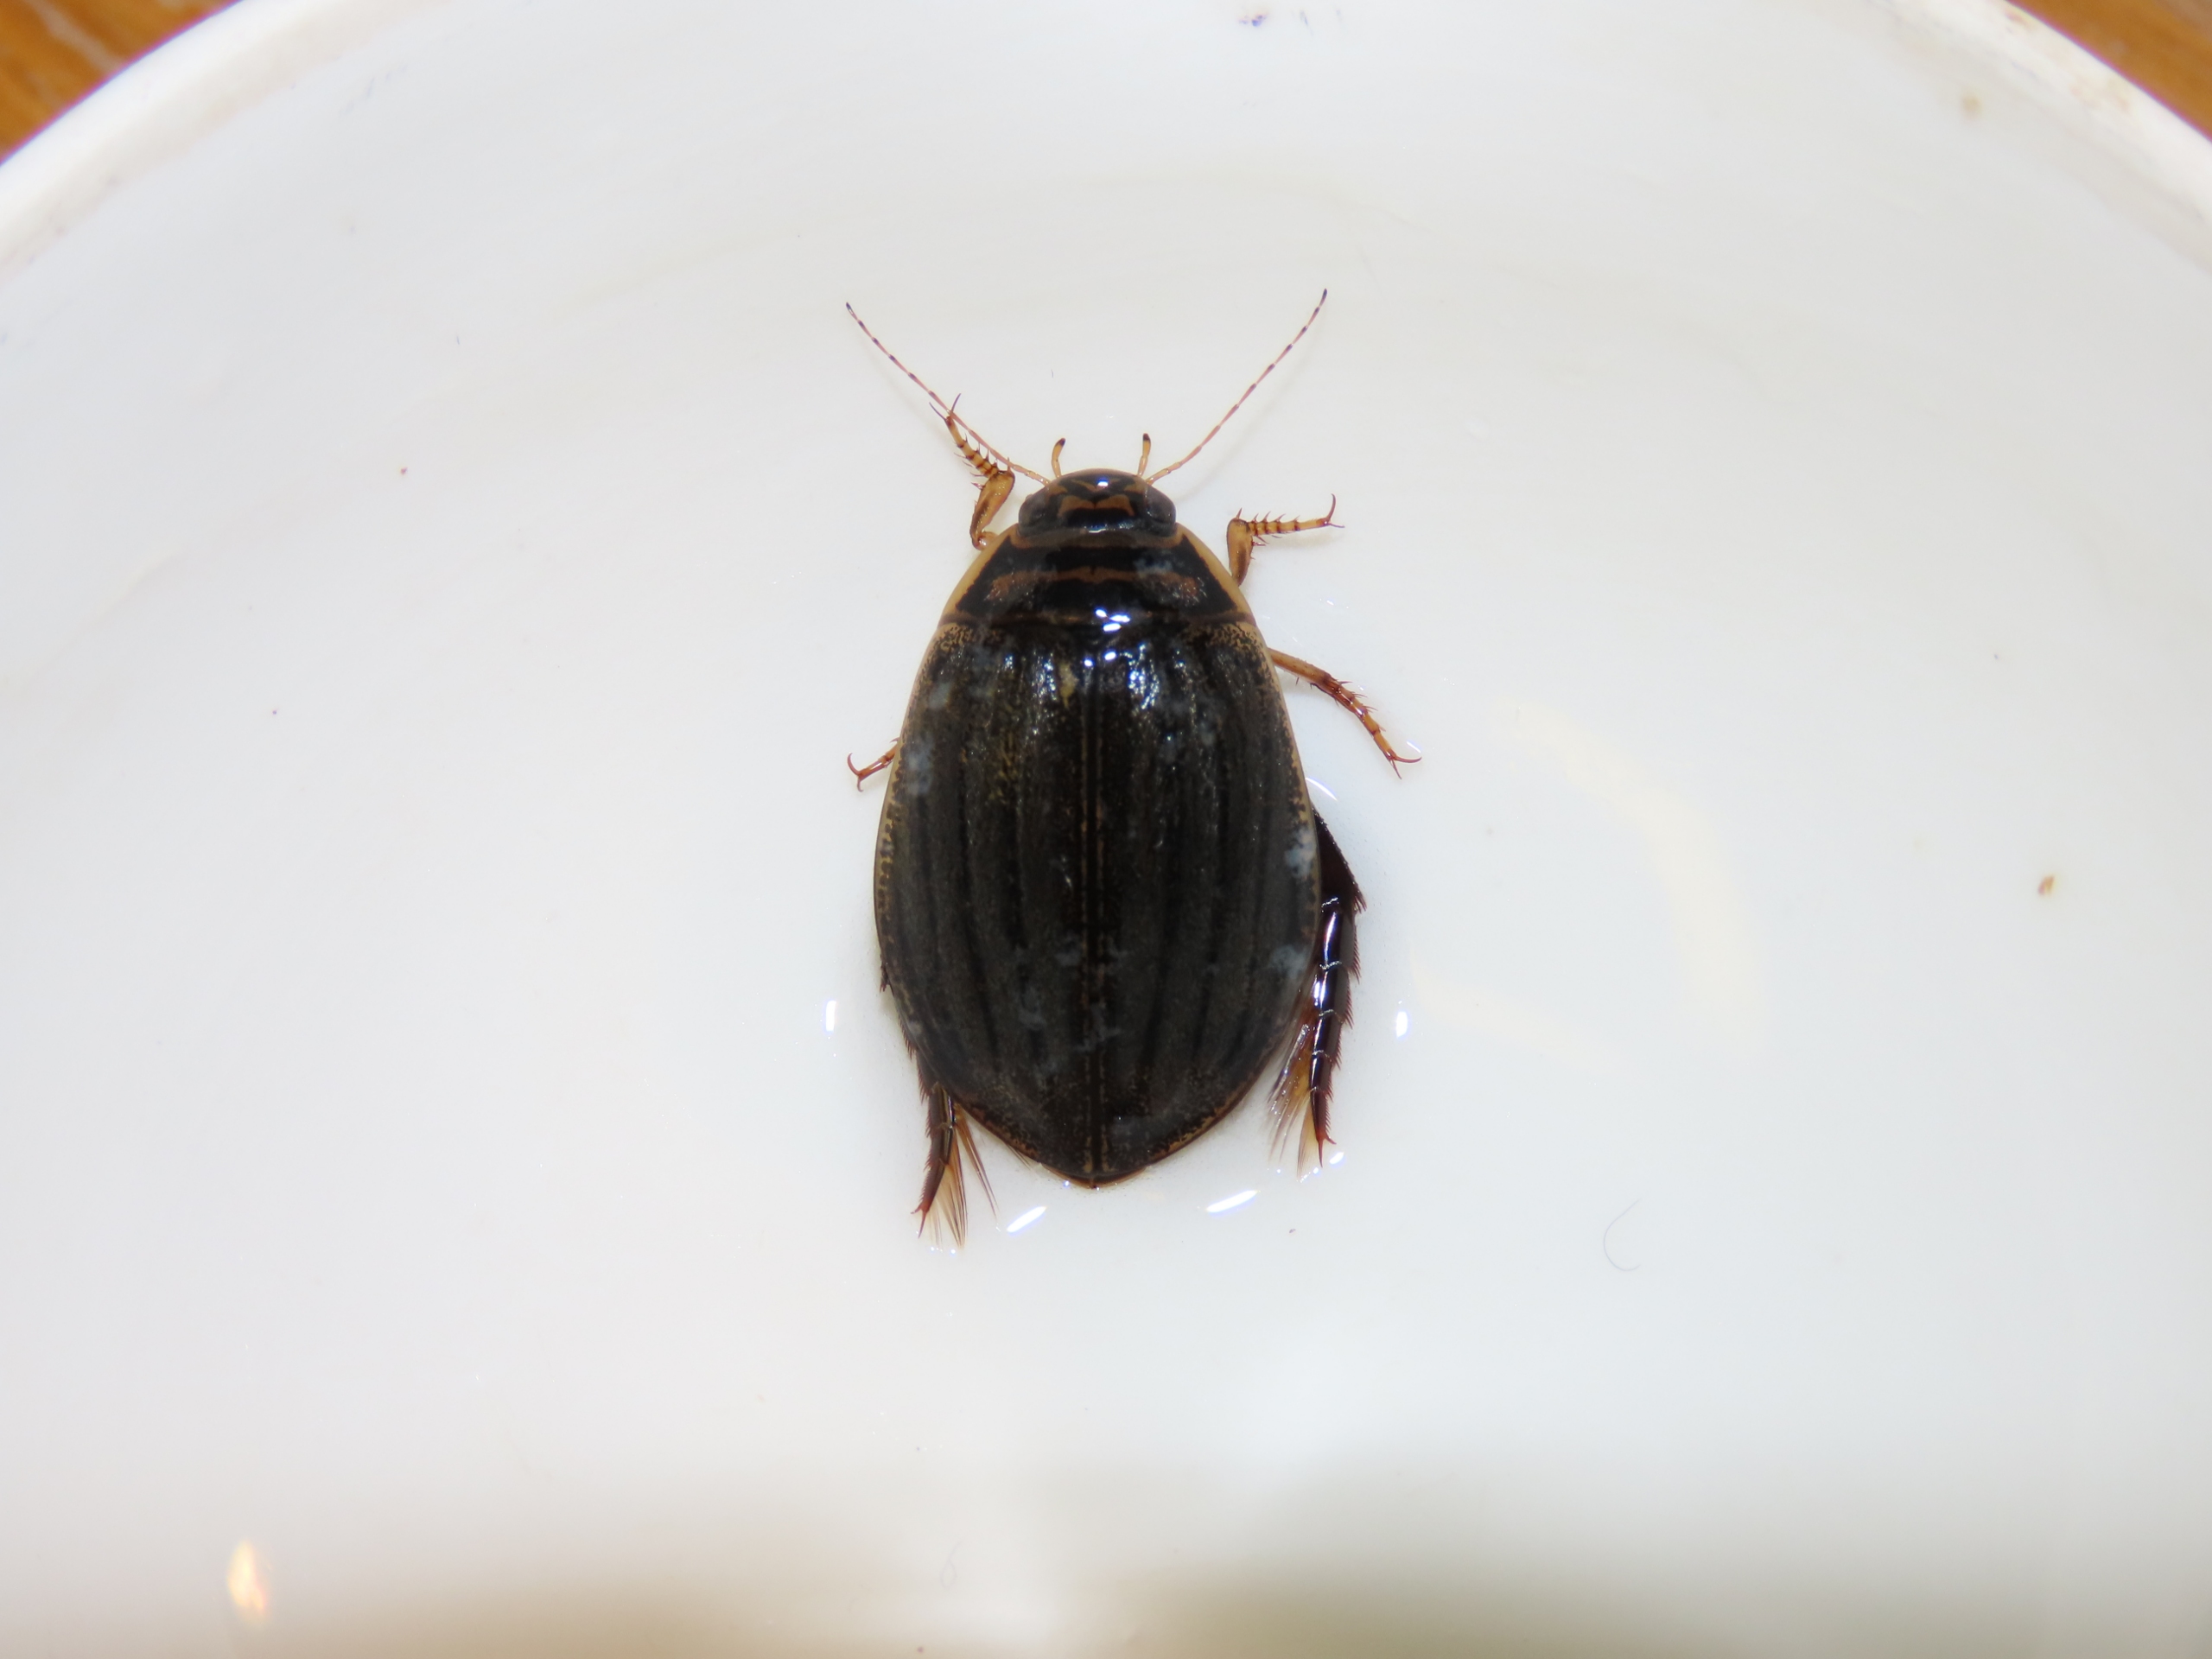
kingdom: Animalia
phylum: Arthropoda
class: Insecta
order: Coleoptera
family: Dytiscidae
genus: Acilius
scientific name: Acilius sulcatus
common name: Stribet skivevandkalv
